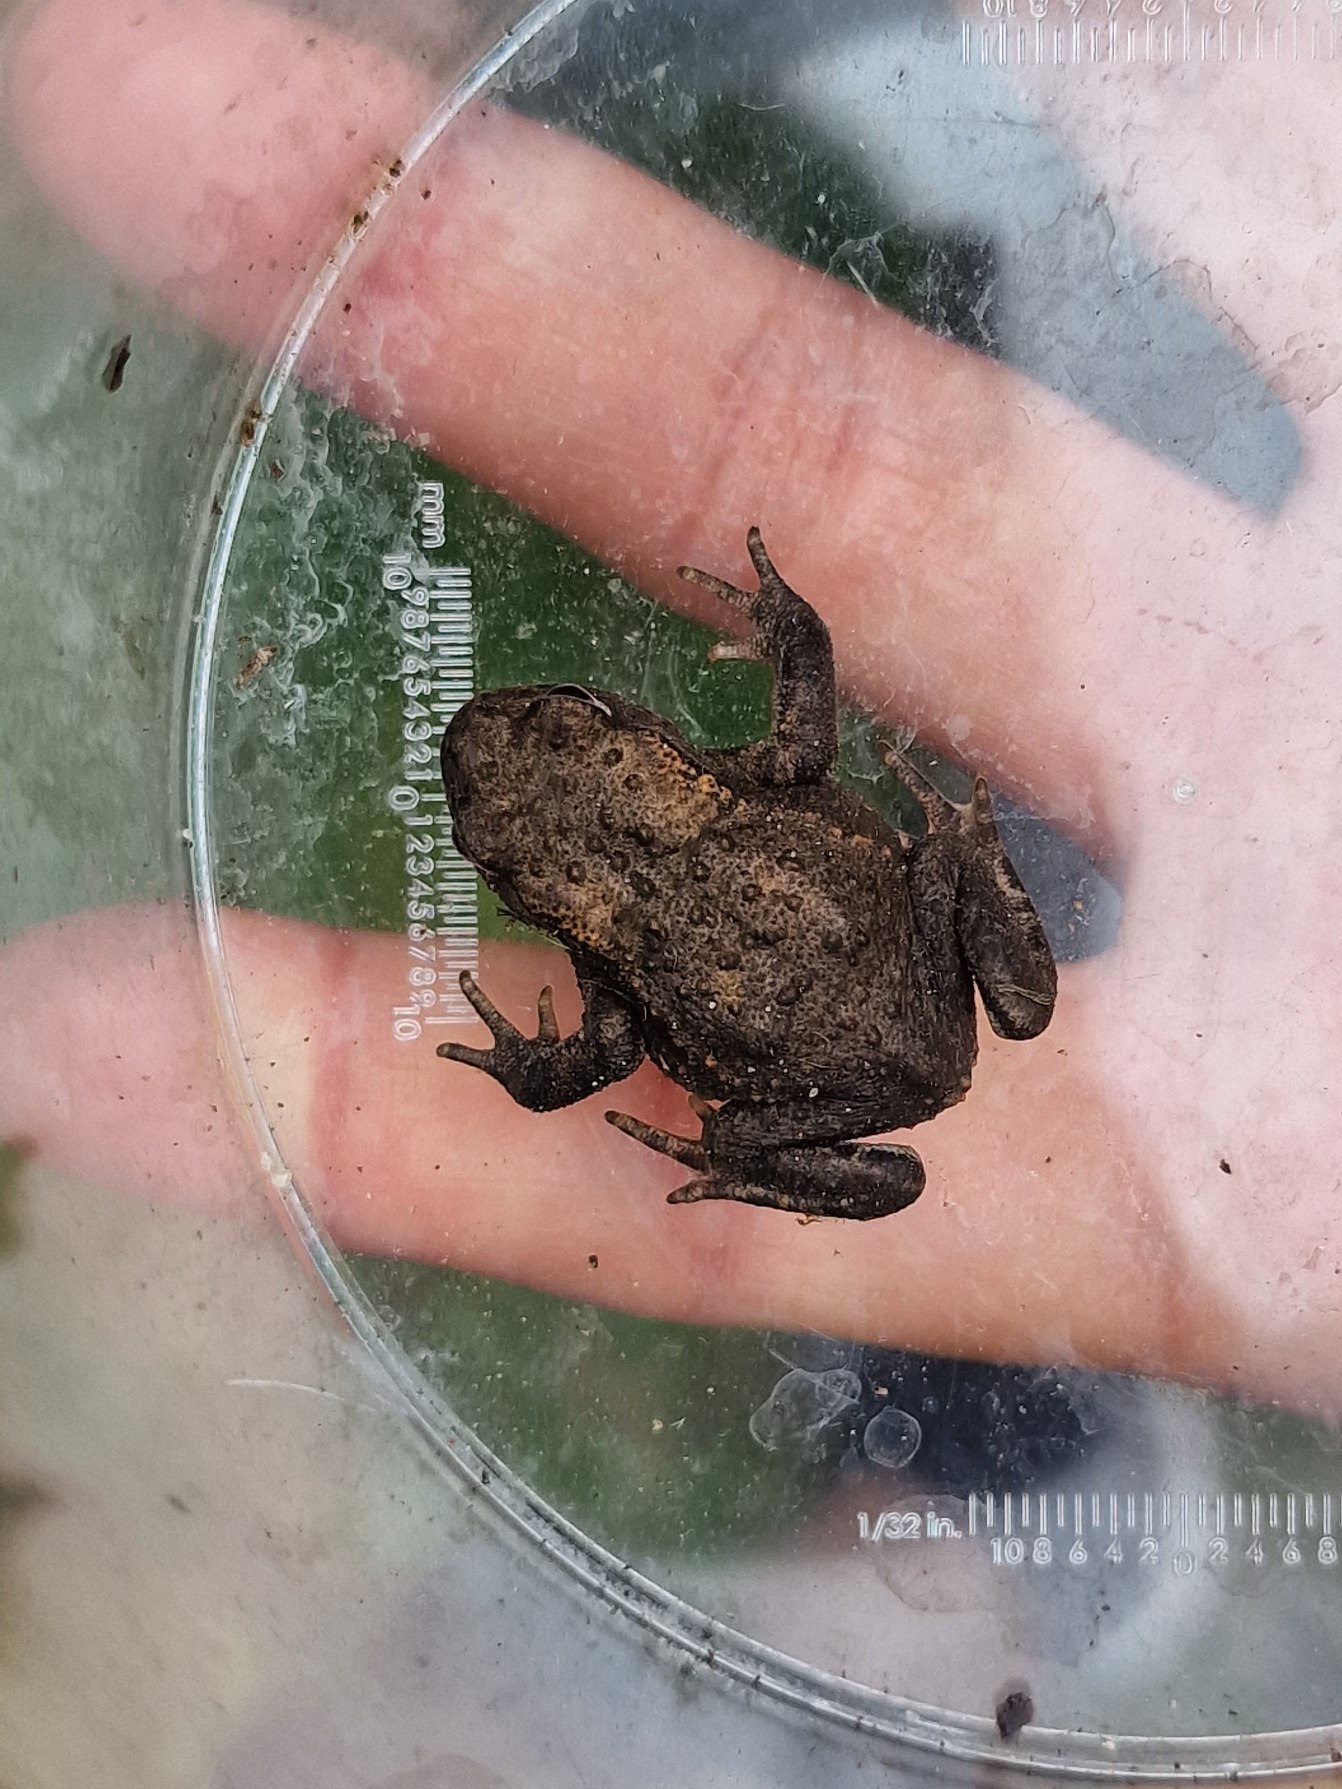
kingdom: Animalia
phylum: Chordata
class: Amphibia
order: Anura
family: Bufonidae
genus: Bufo
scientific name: Bufo bufo
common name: Skrubtudse
